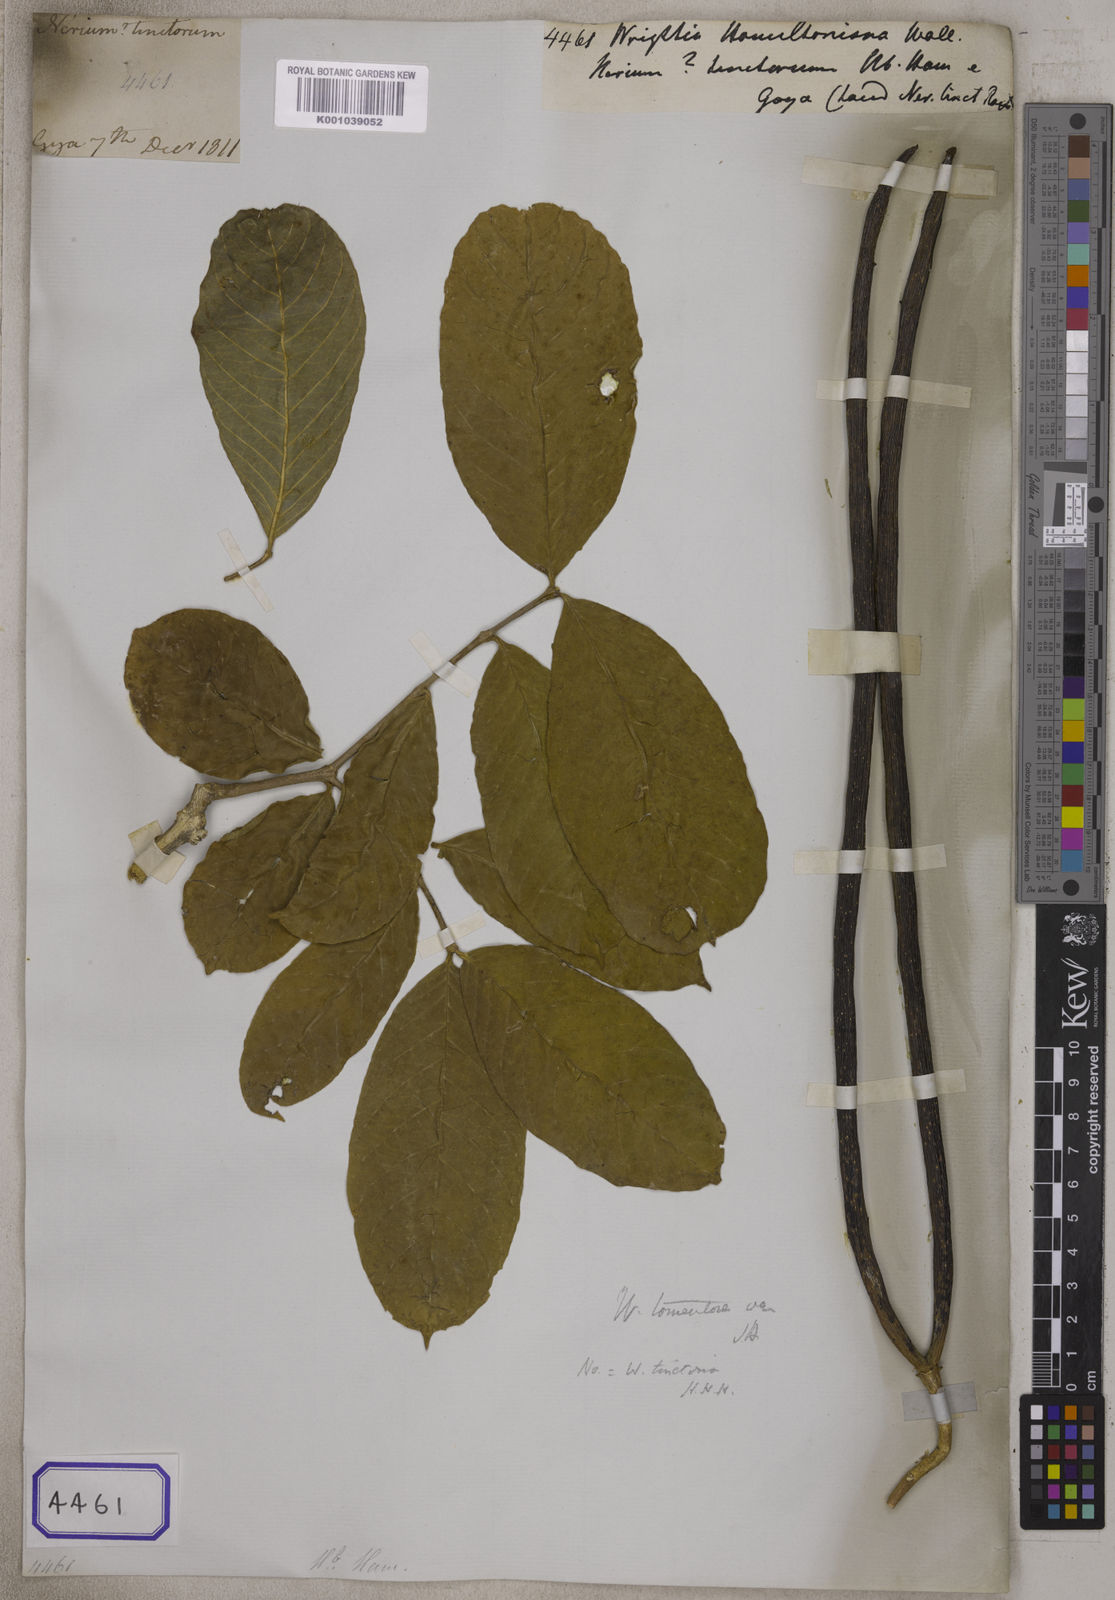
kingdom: Plantae
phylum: Tracheophyta
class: Magnoliopsida
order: Gentianales
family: Apocynaceae
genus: Wrightia
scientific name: Wrightia arborea
